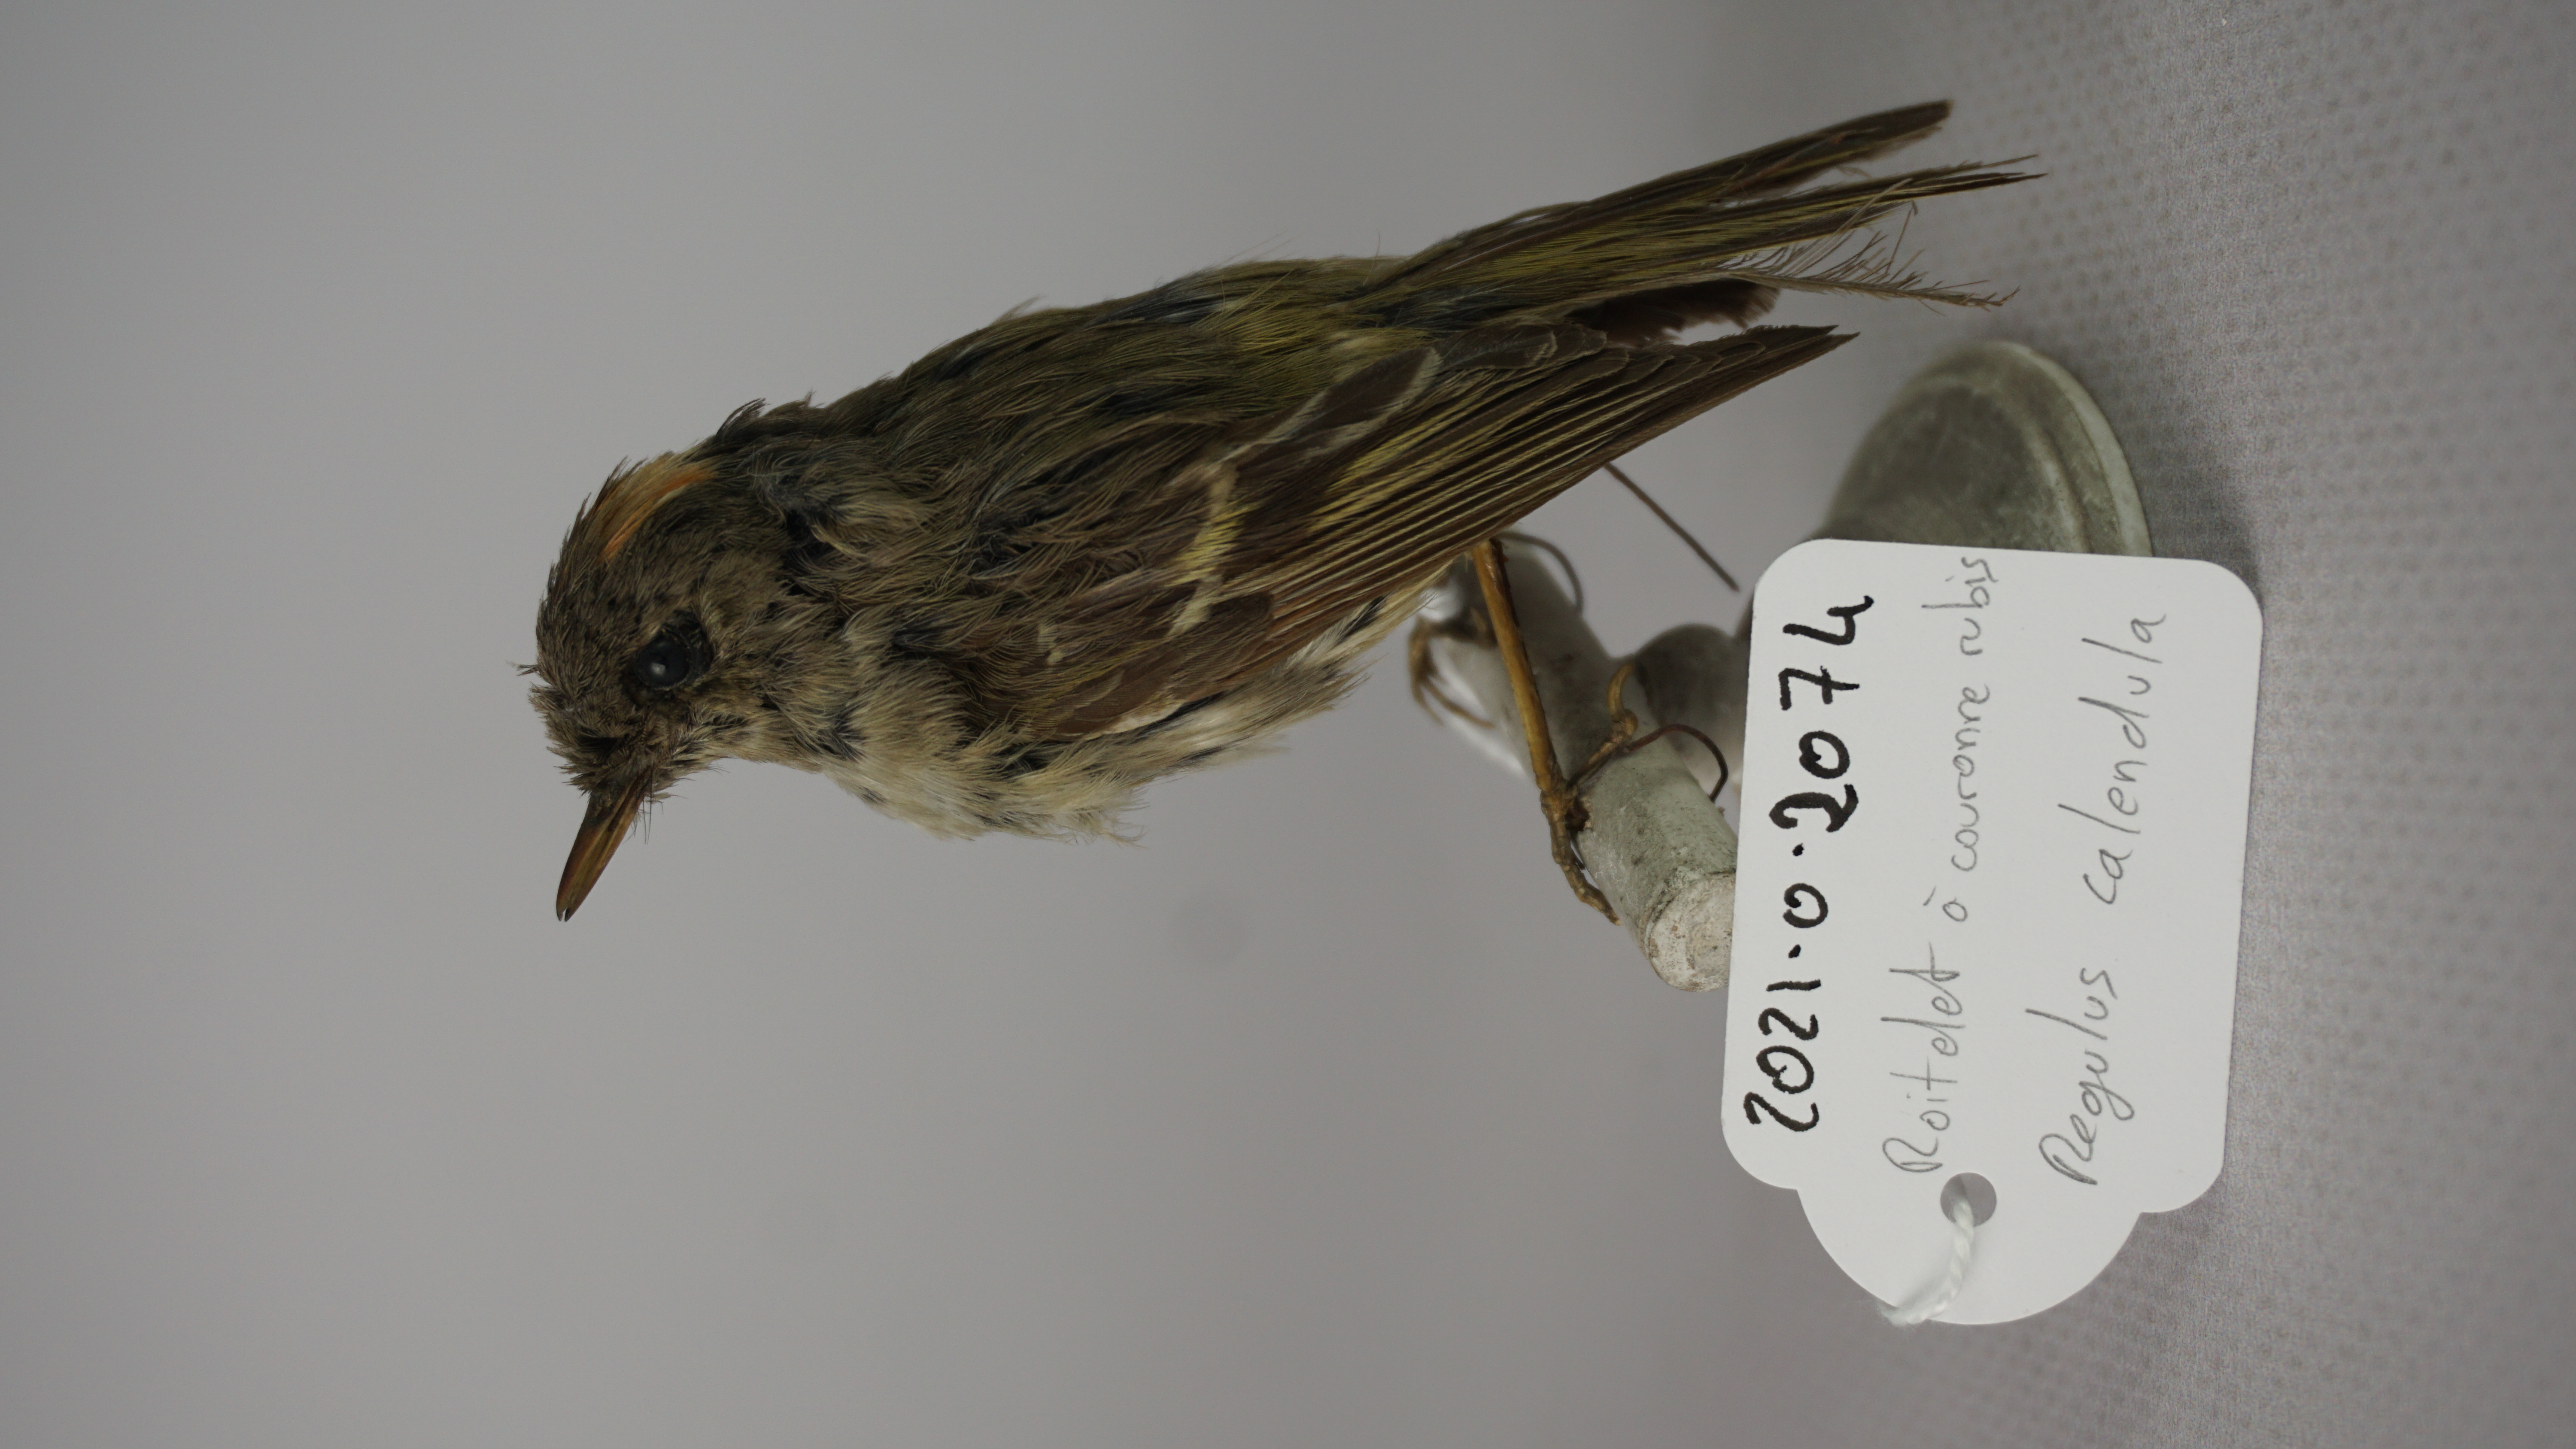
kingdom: Animalia
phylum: Chordata
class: Aves
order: Passeriformes
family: Regulidae
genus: Regulus
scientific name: Regulus calendula
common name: Ruby-crowned kinglet
